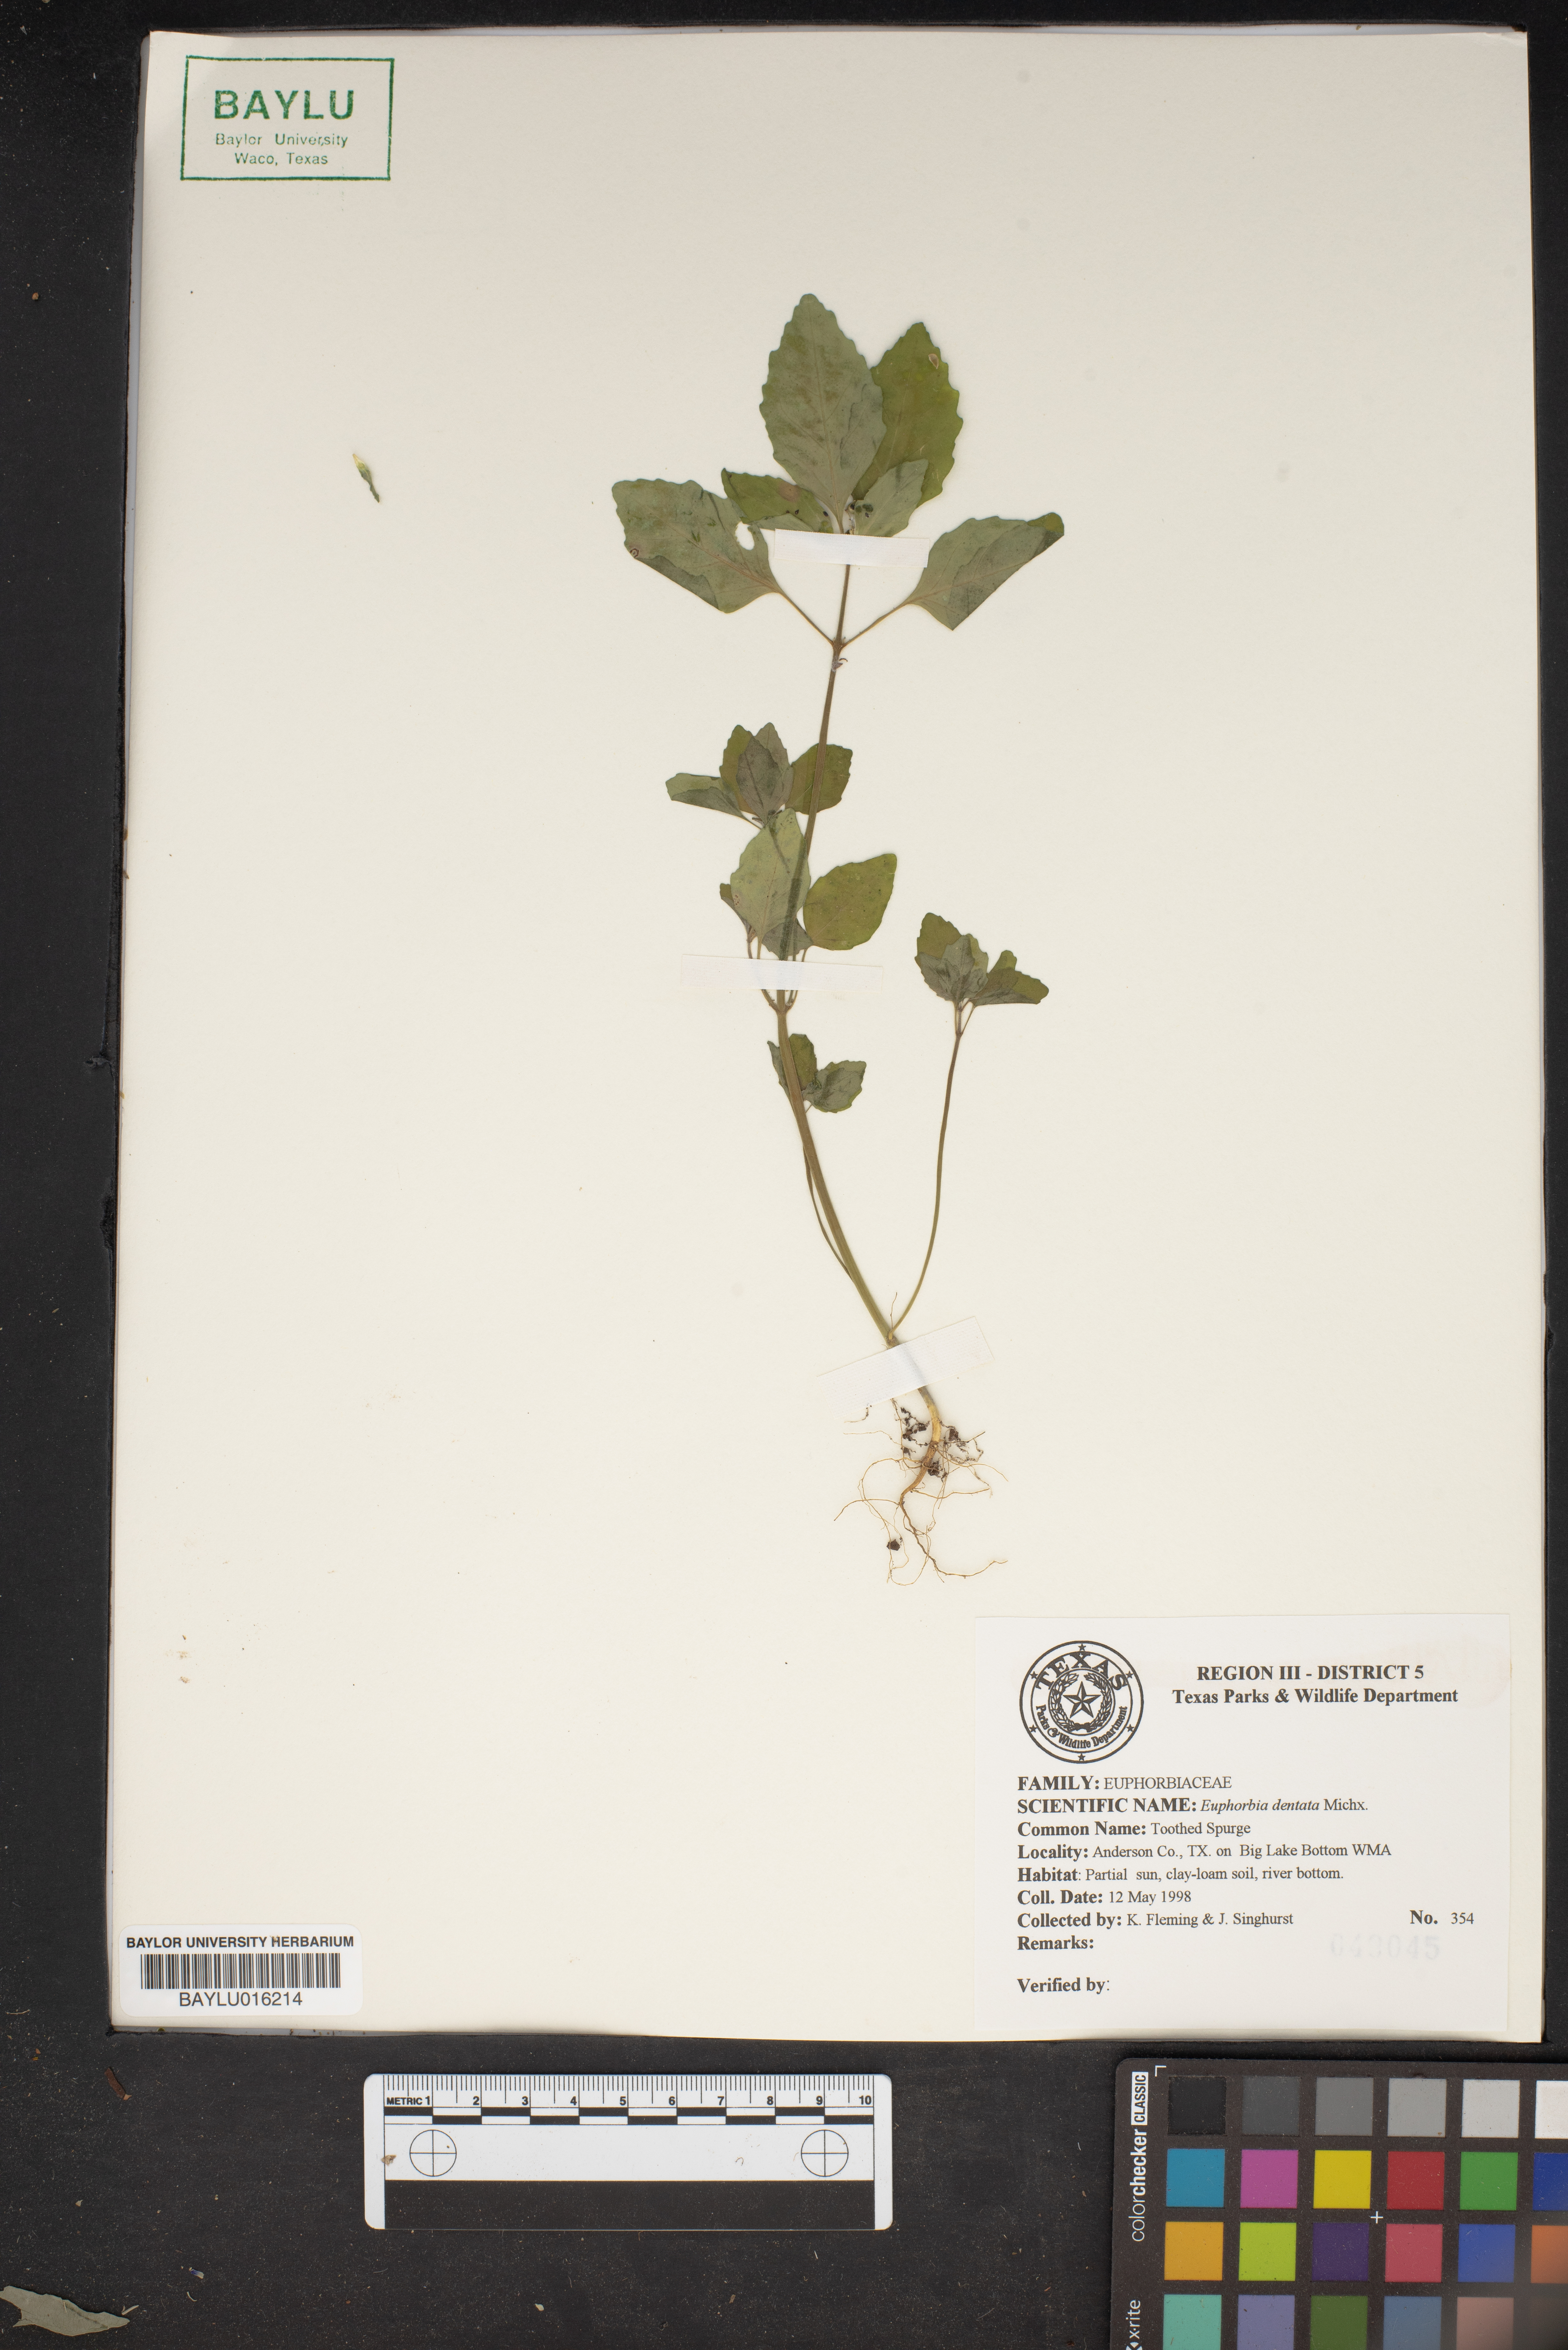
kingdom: Plantae
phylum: Tracheophyta
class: Magnoliopsida
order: Malpighiales
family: Euphorbiaceae
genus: Euphorbia
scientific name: Euphorbia dentata
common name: Dentate spurge
